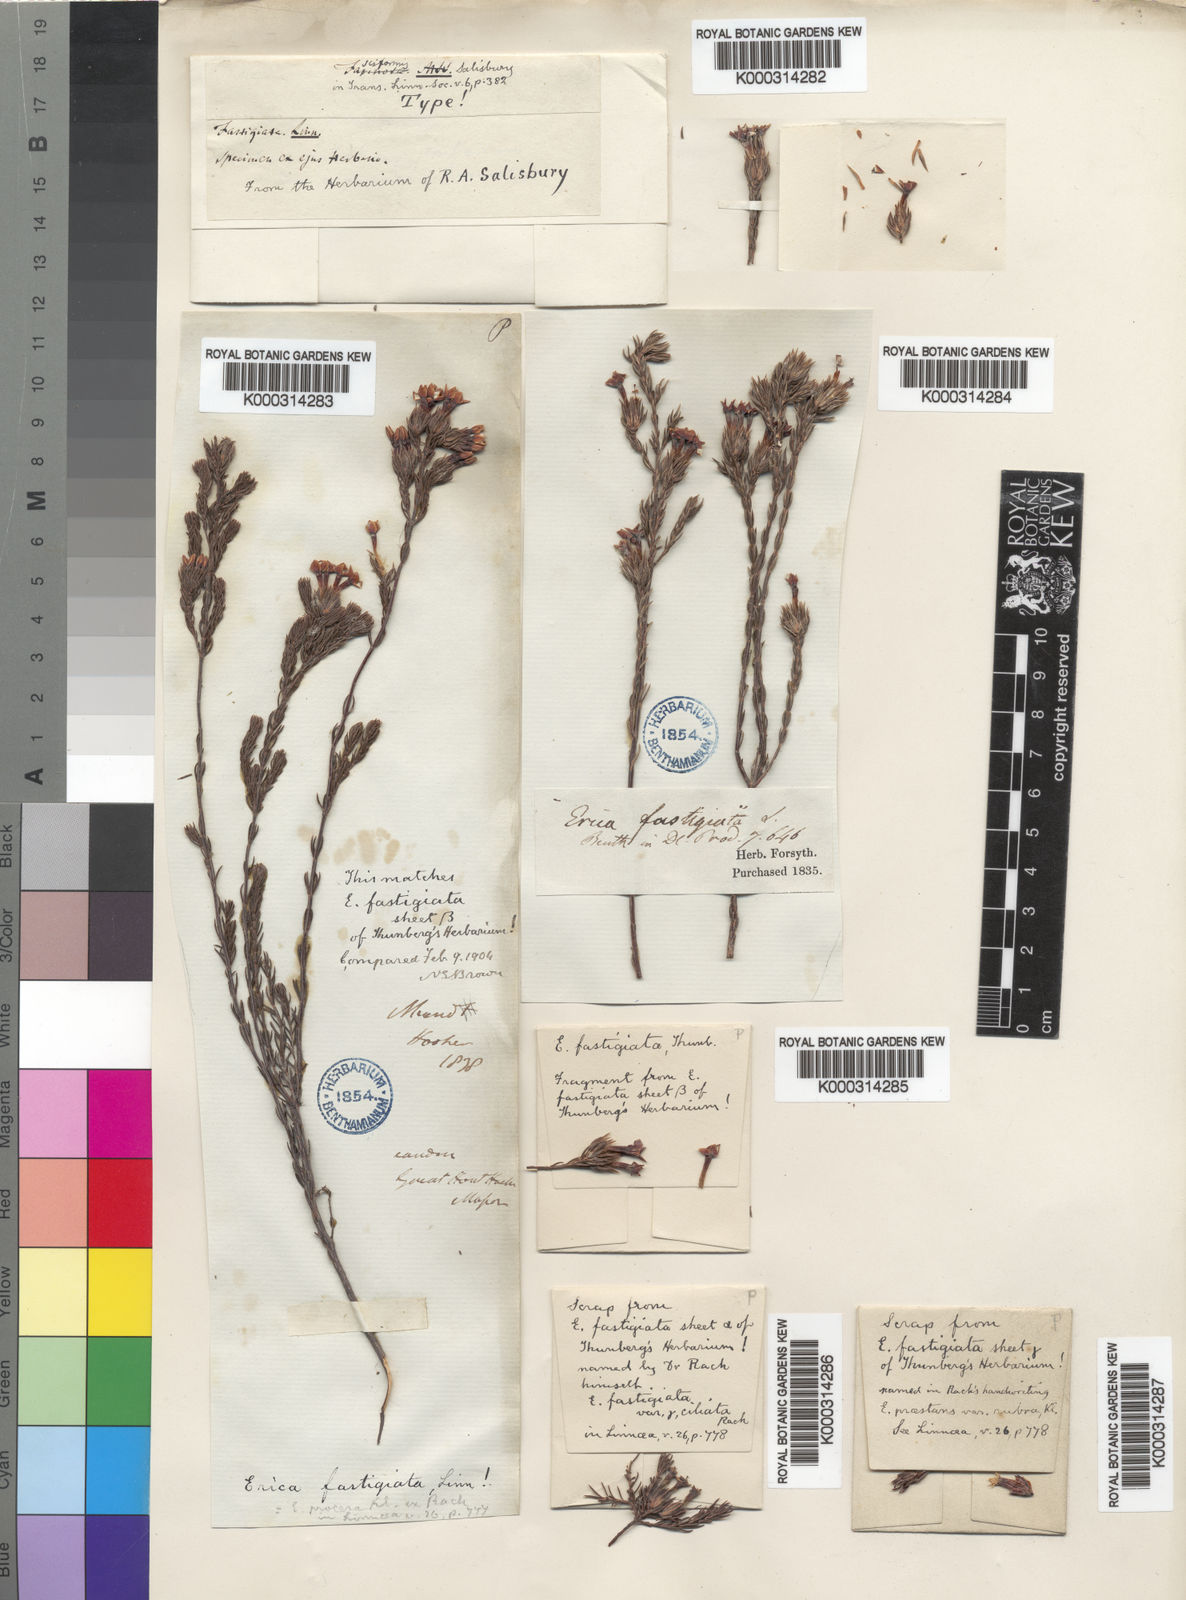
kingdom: Plantae
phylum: Tracheophyta
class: Magnoliopsida
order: Ericales
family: Ericaceae
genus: Erica
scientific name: Erica fastigiata
